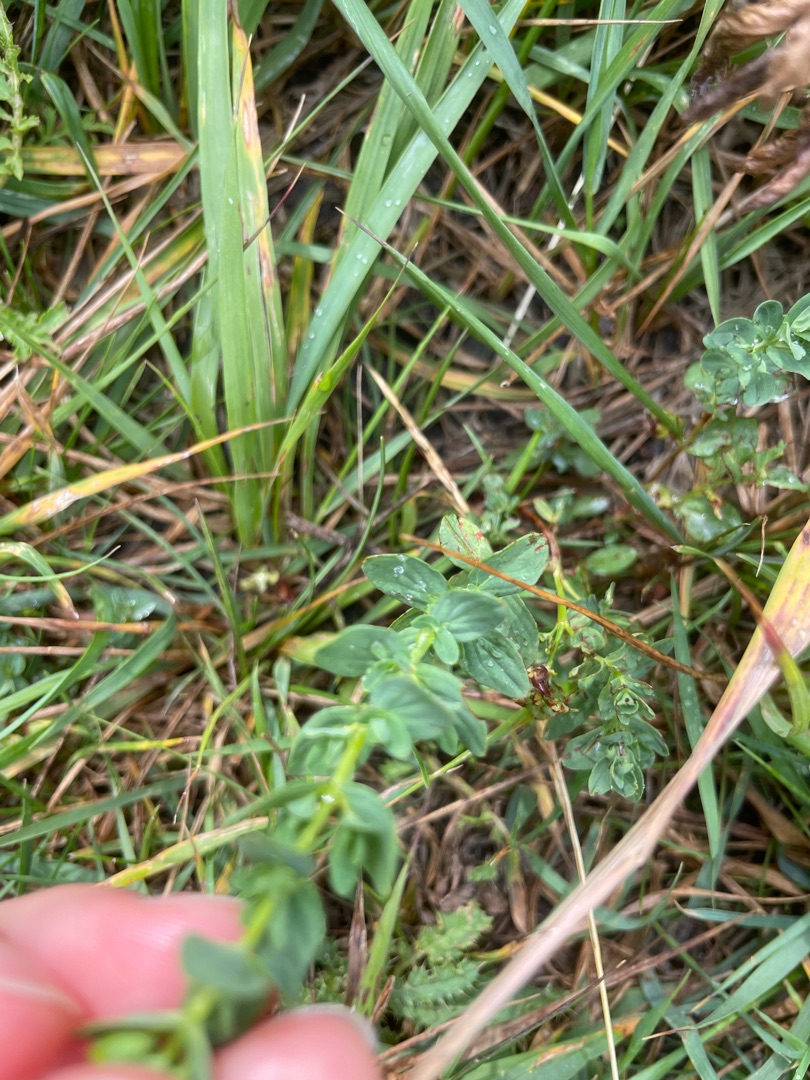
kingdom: Plantae
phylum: Tracheophyta
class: Magnoliopsida
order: Malpighiales
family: Hypericaceae
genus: Hypericum
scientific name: Hypericum
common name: Perikonslægten
